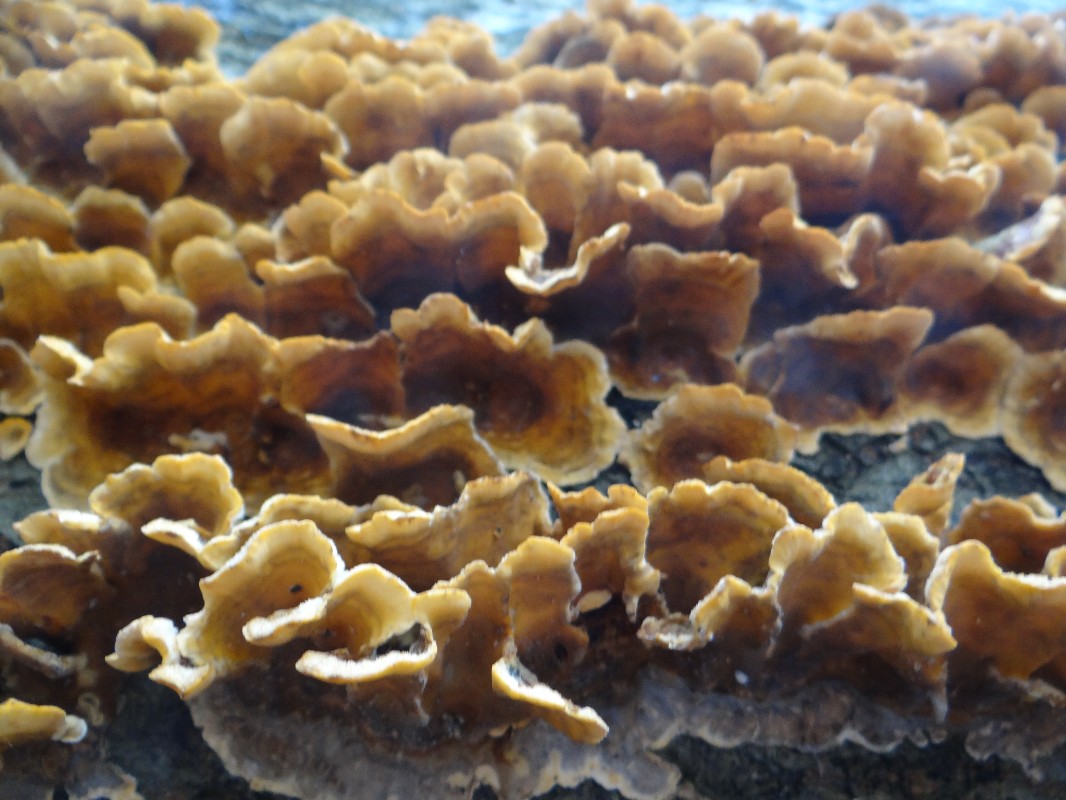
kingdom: Fungi
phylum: Basidiomycota
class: Agaricomycetes
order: Russulales
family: Stereaceae
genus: Stereum
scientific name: Stereum hirsutum
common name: håret lædersvamp
